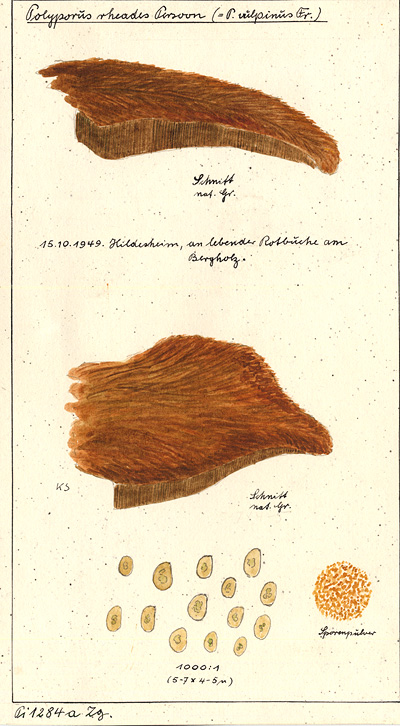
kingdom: Plantae
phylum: Tracheophyta
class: Magnoliopsida
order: Fagales
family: Fagaceae
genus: Fagus
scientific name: Fagus sylvatica
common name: Beech
